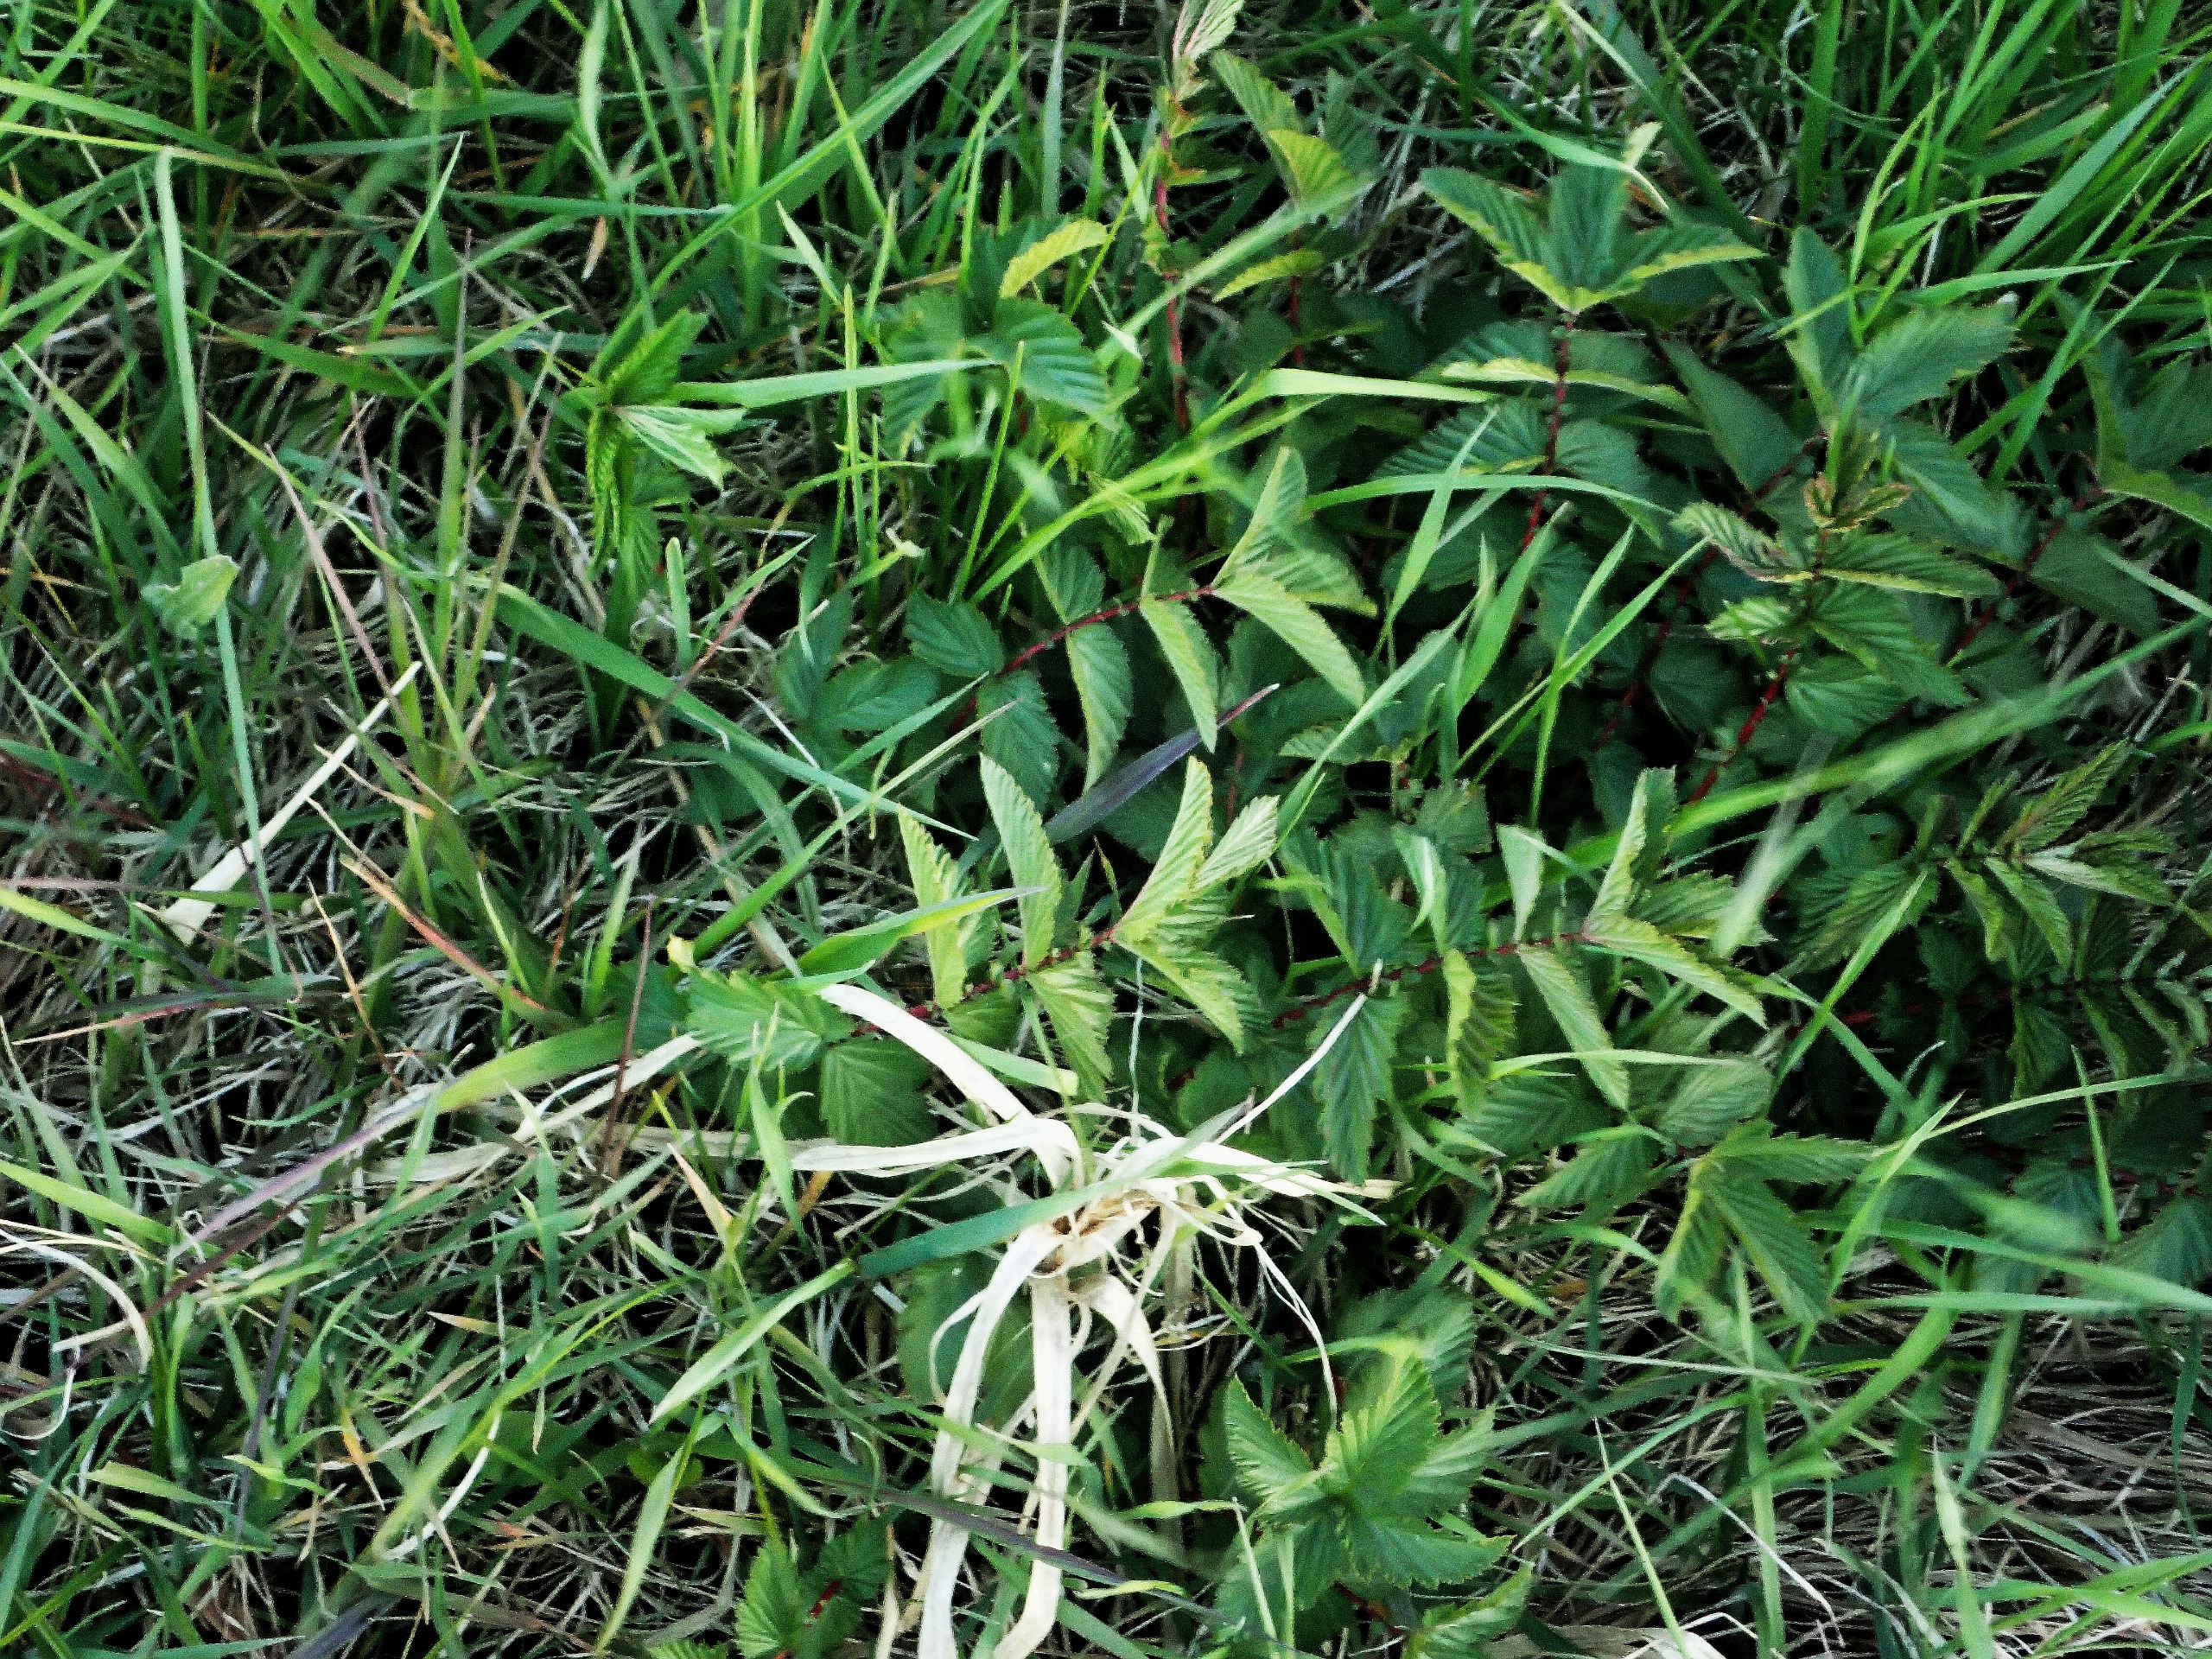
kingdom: Plantae
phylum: Tracheophyta
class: Magnoliopsida
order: Rosales
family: Rosaceae
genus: Filipendula
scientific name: Filipendula ulmaria
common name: Almindelig mjødurt
